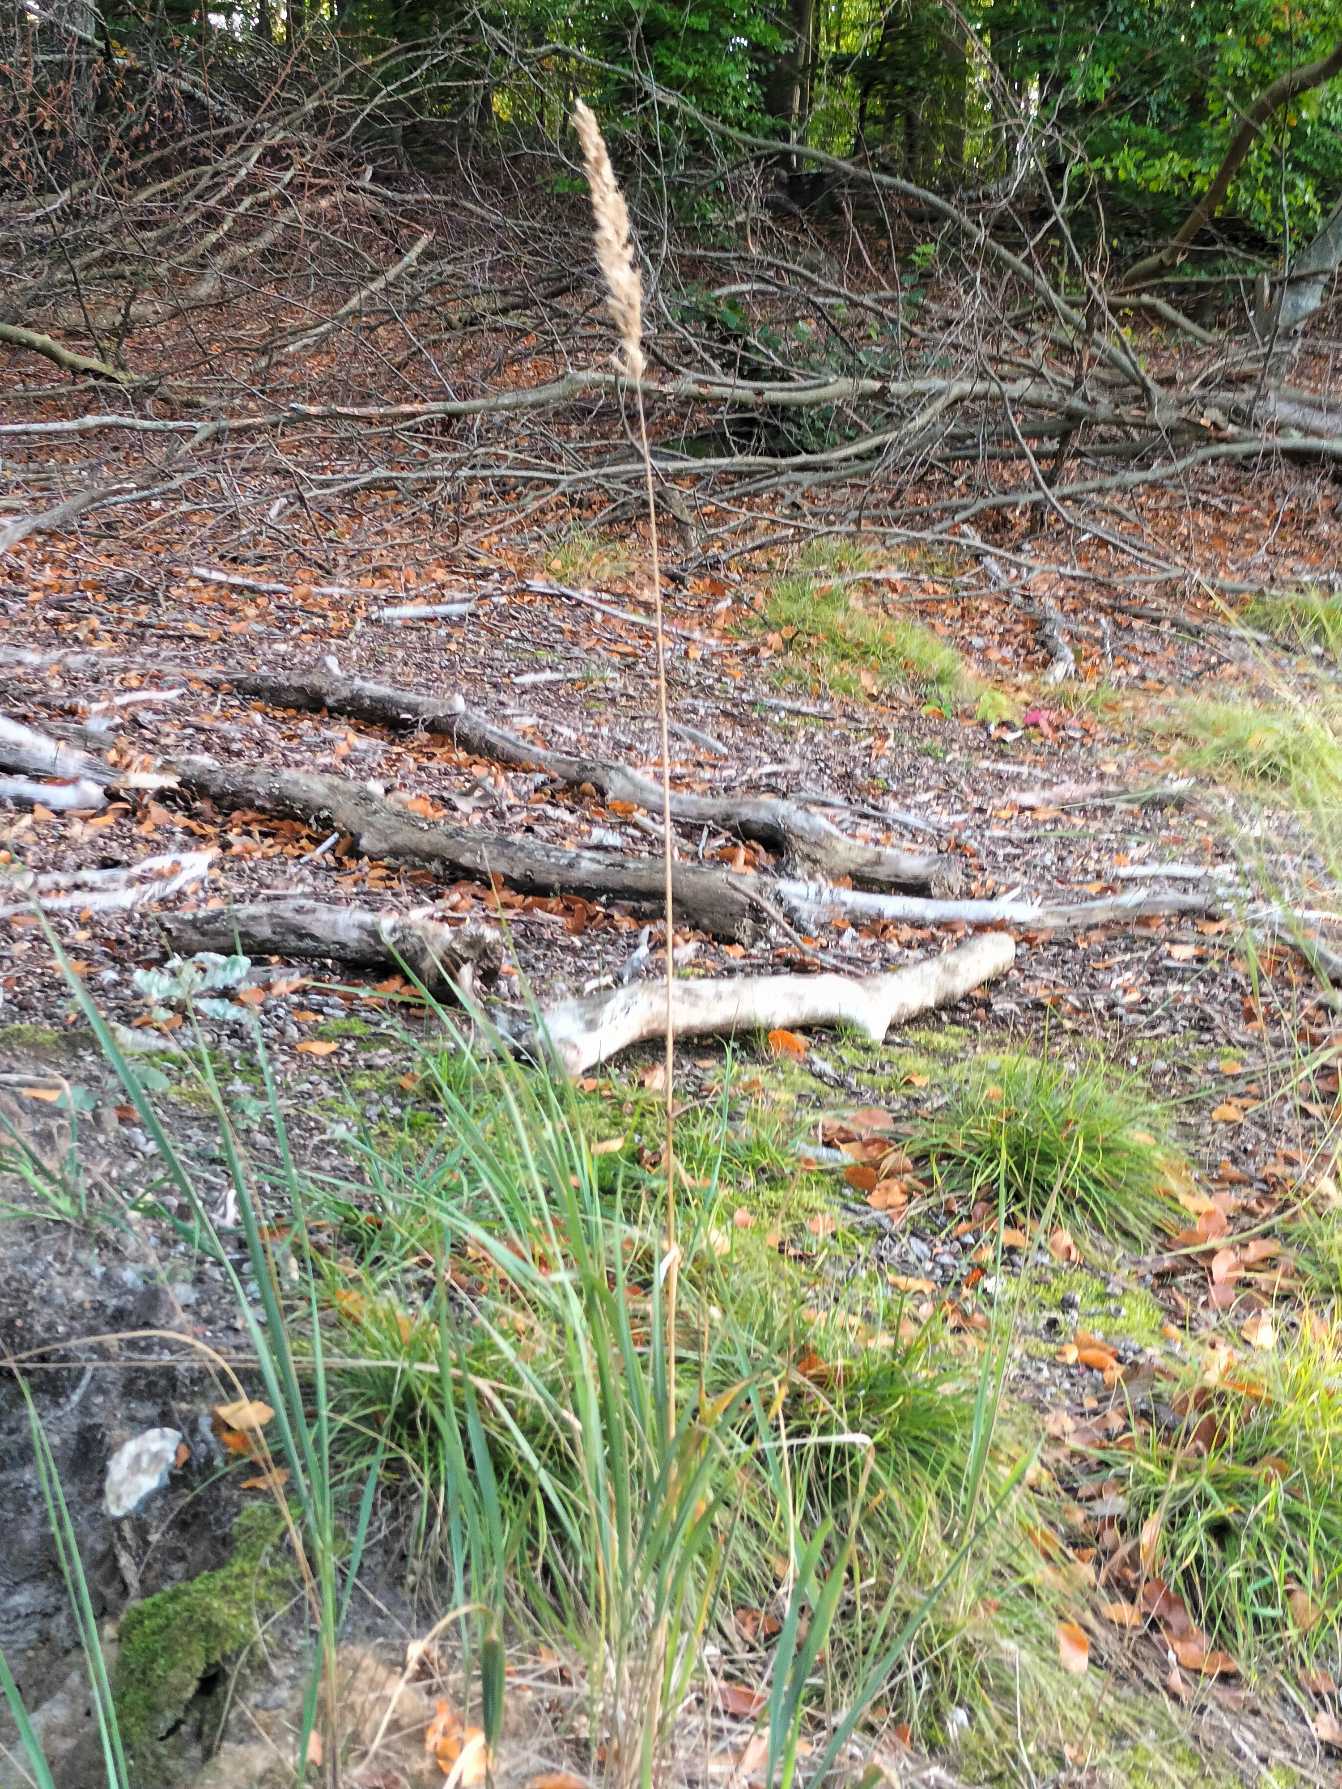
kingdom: Plantae
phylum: Tracheophyta
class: Liliopsida
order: Poales
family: Poaceae
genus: Calamagrostis
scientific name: Calamagrostis epigejos
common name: Bjerg-rørhvene
